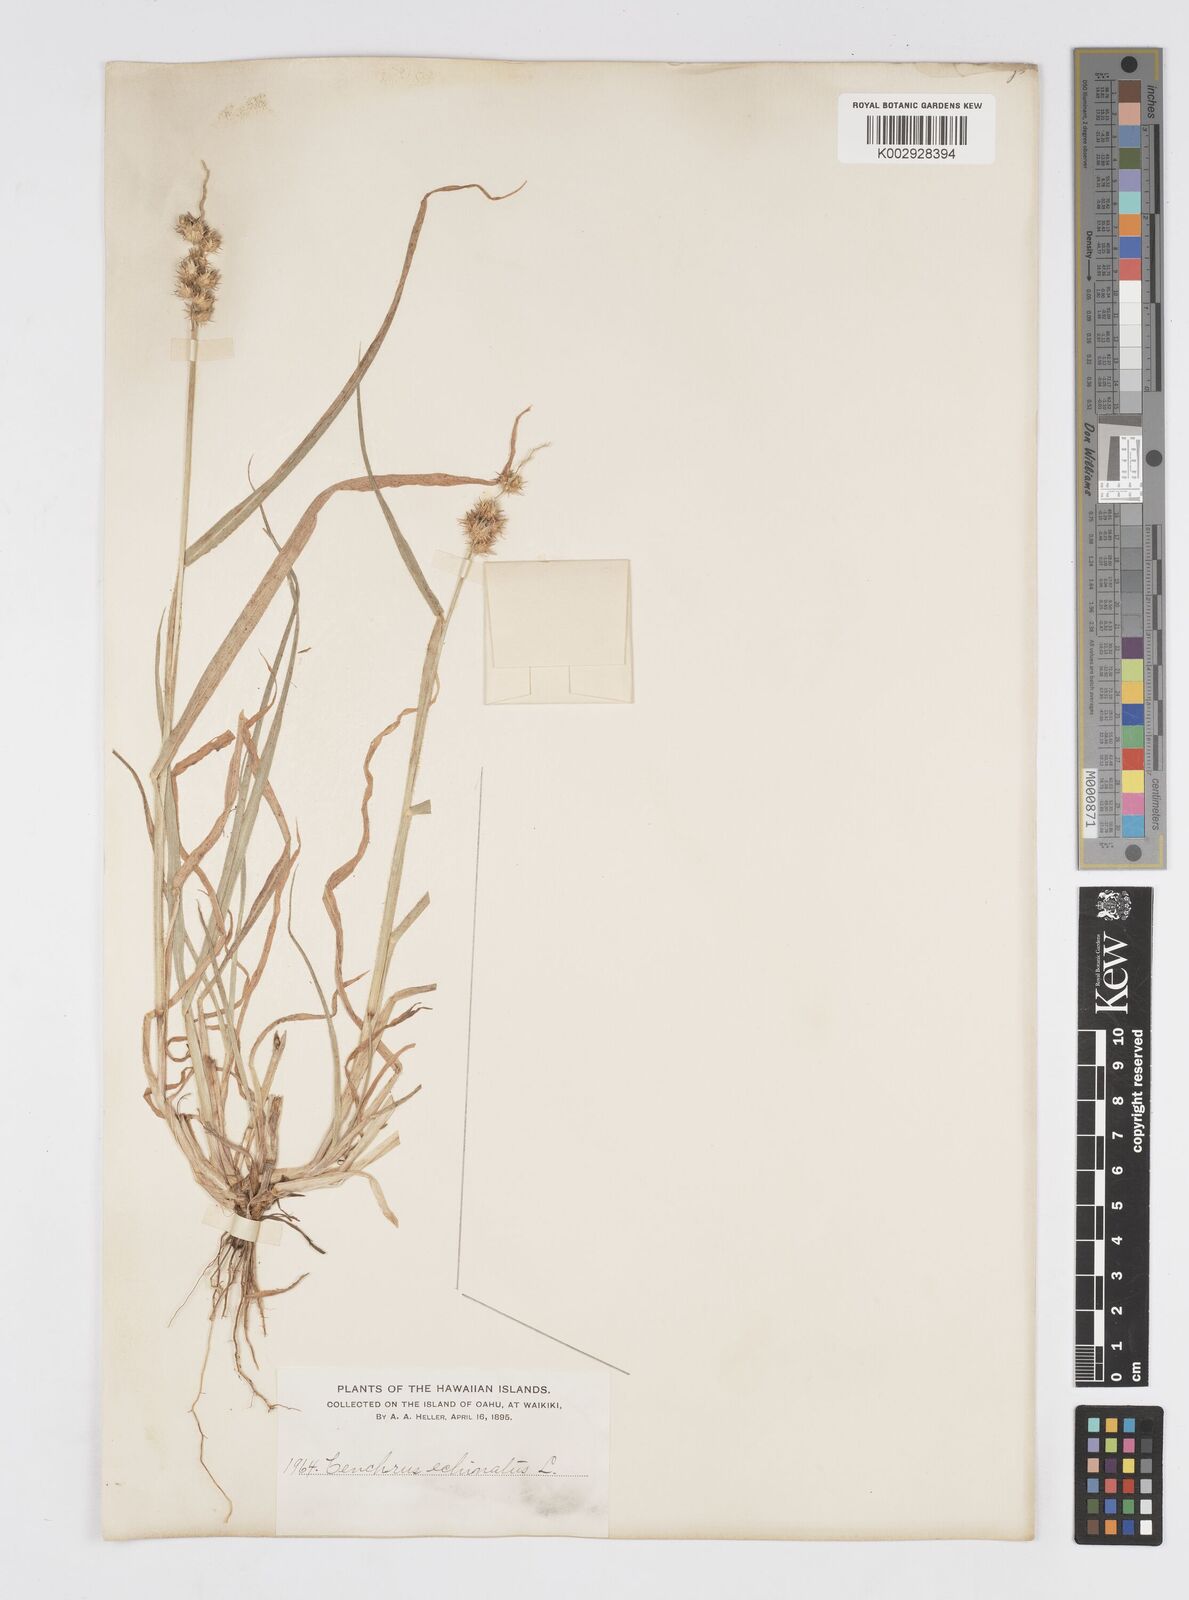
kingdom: Plantae
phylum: Tracheophyta
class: Liliopsida
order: Poales
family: Poaceae
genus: Cenchrus
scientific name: Cenchrus echinatus
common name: Southern sandbur
